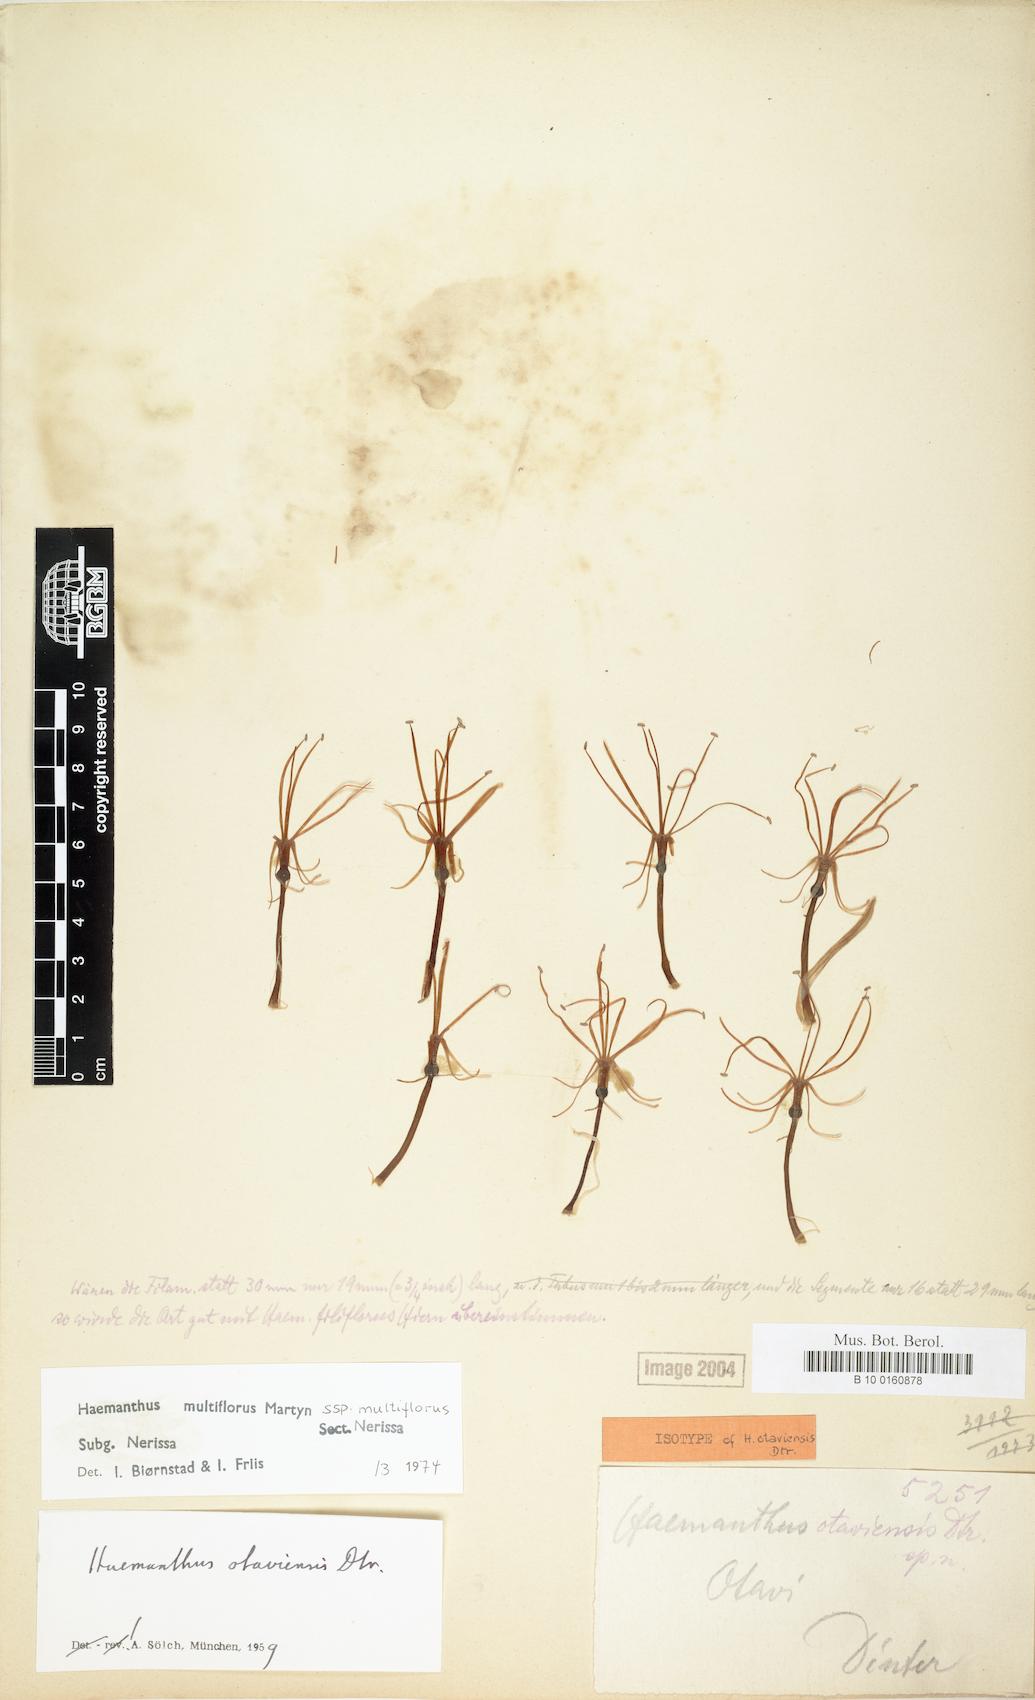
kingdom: Plantae
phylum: Tracheophyta
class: Liliopsida
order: Asparagales
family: Amaryllidaceae
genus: Scadoxus
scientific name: Scadoxus multiflorus
